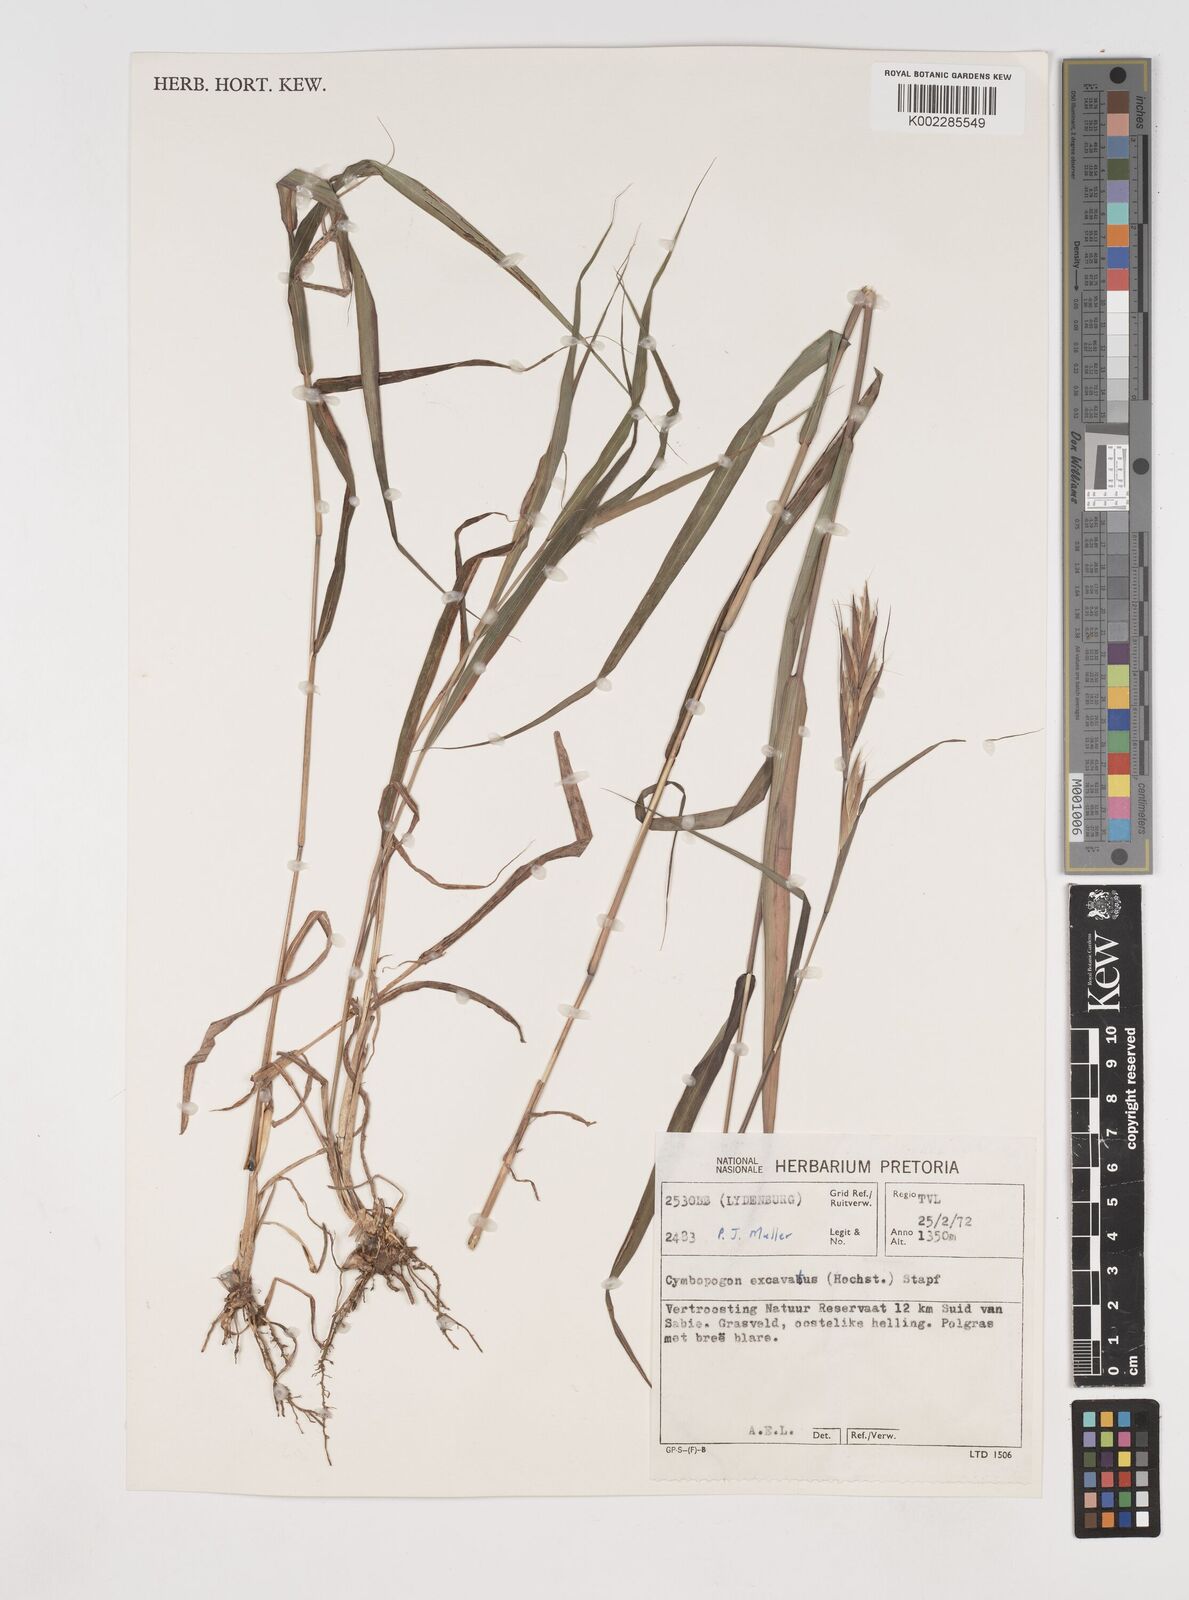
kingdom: Plantae
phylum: Tracheophyta
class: Liliopsida
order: Poales
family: Poaceae
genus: Cymbopogon
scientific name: Cymbopogon caesius
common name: Kachi grass
